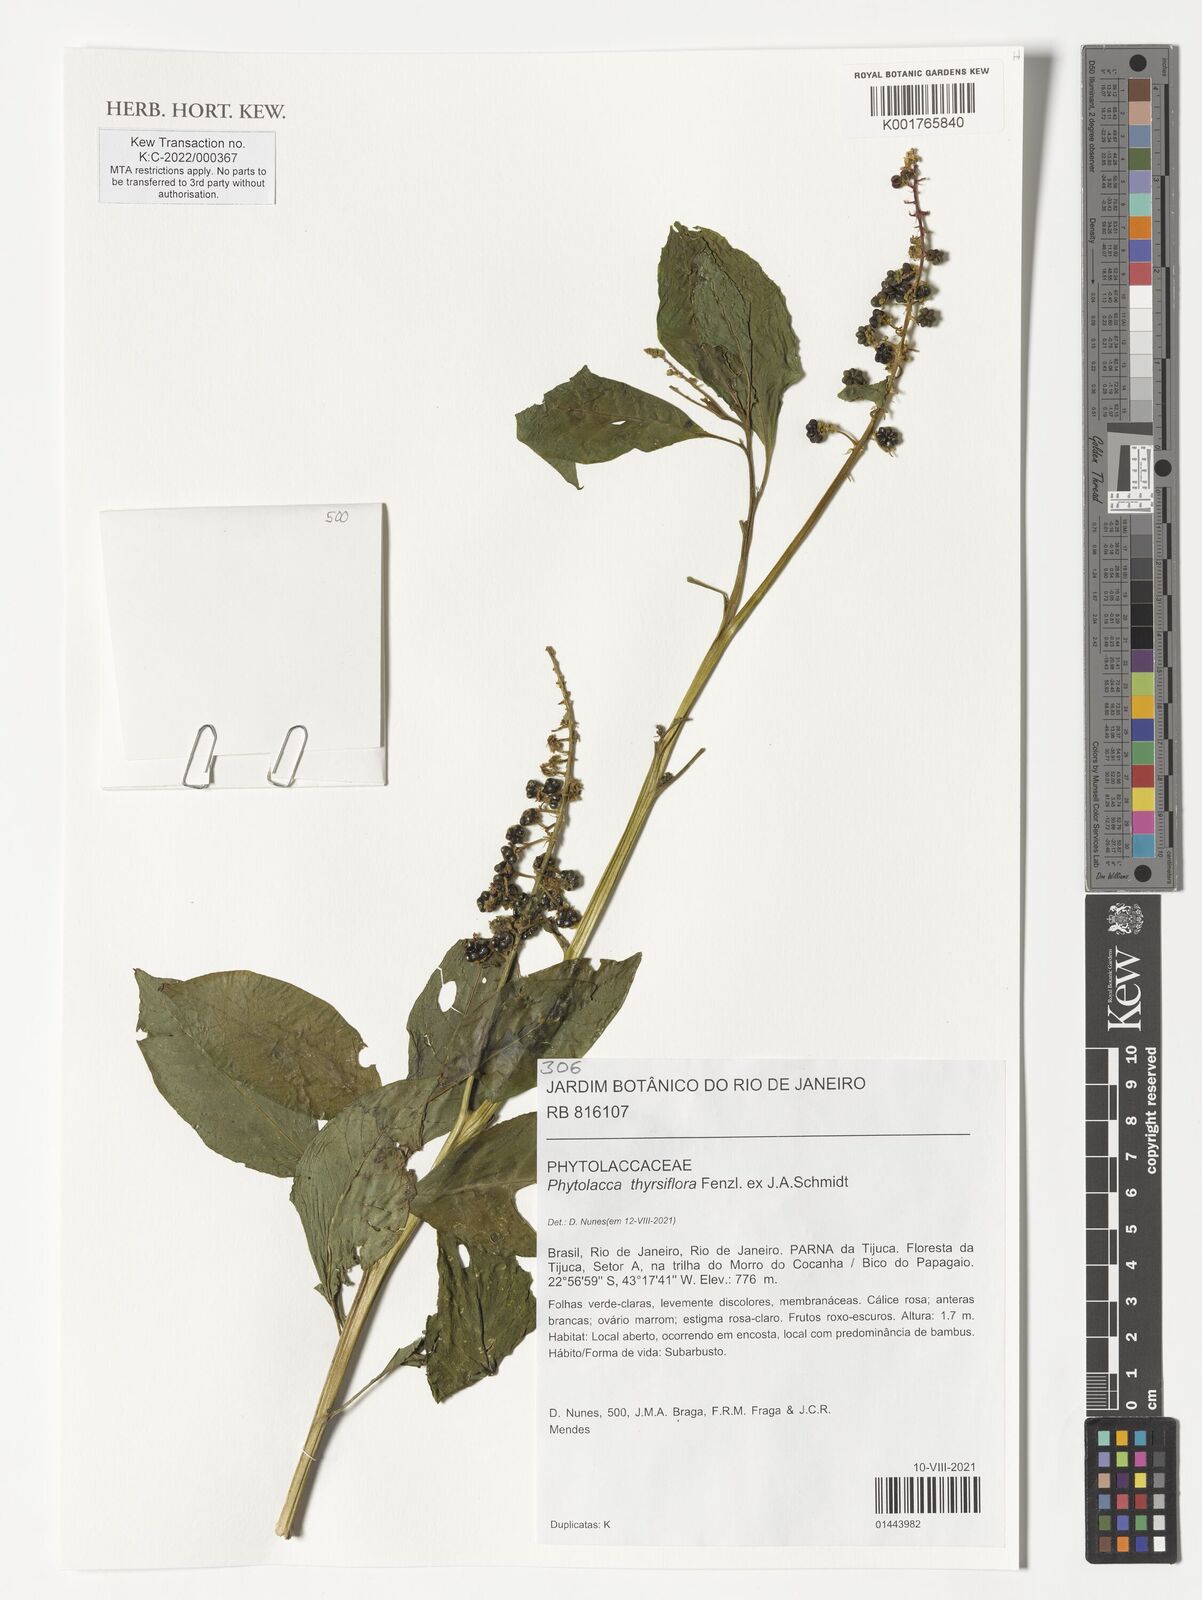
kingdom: Plantae
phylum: Tracheophyta
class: Magnoliopsida
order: Caryophyllales
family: Phytolaccaceae
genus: Phytolacca
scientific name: Phytolacca thyrsiflora
